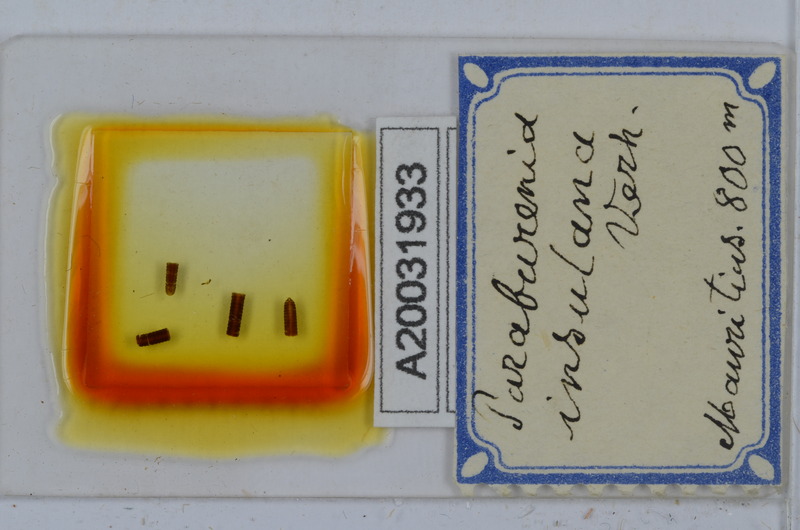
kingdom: Animalia
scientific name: Animalia
